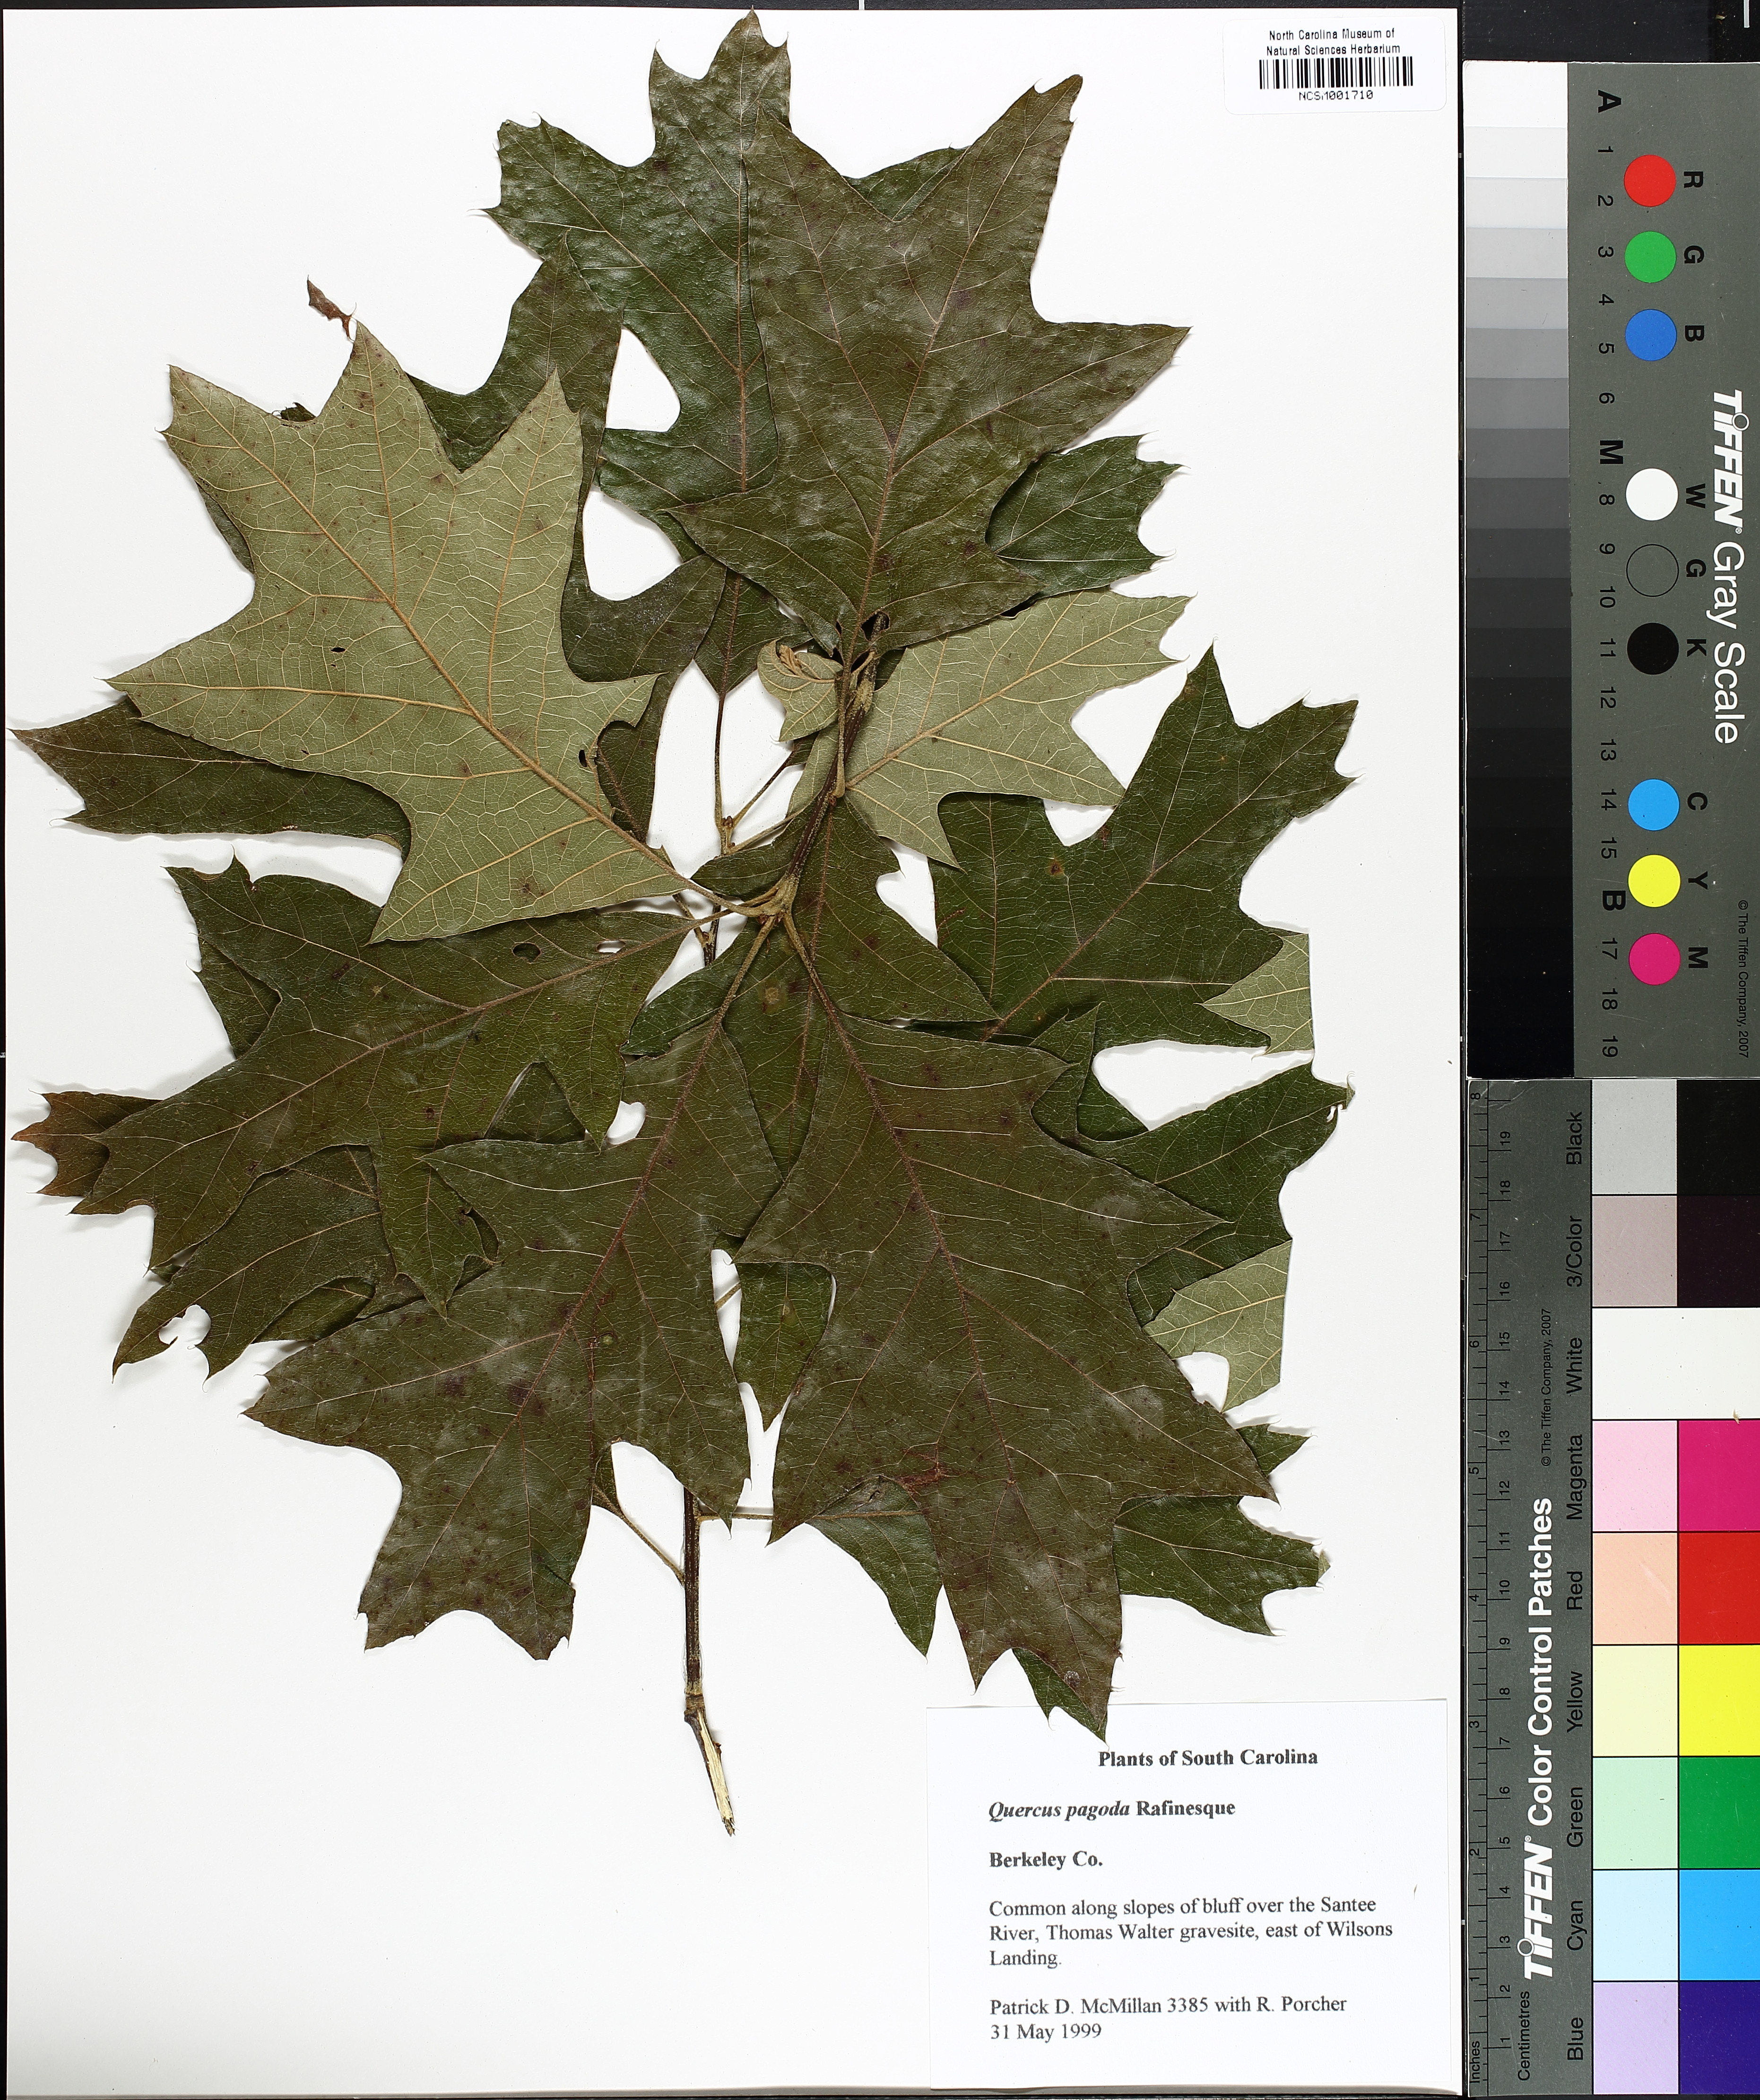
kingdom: Plantae
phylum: Tracheophyta
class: Magnoliopsida
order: Fagales
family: Fagaceae
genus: Quercus
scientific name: Quercus pagoda
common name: Cherrybark oak
